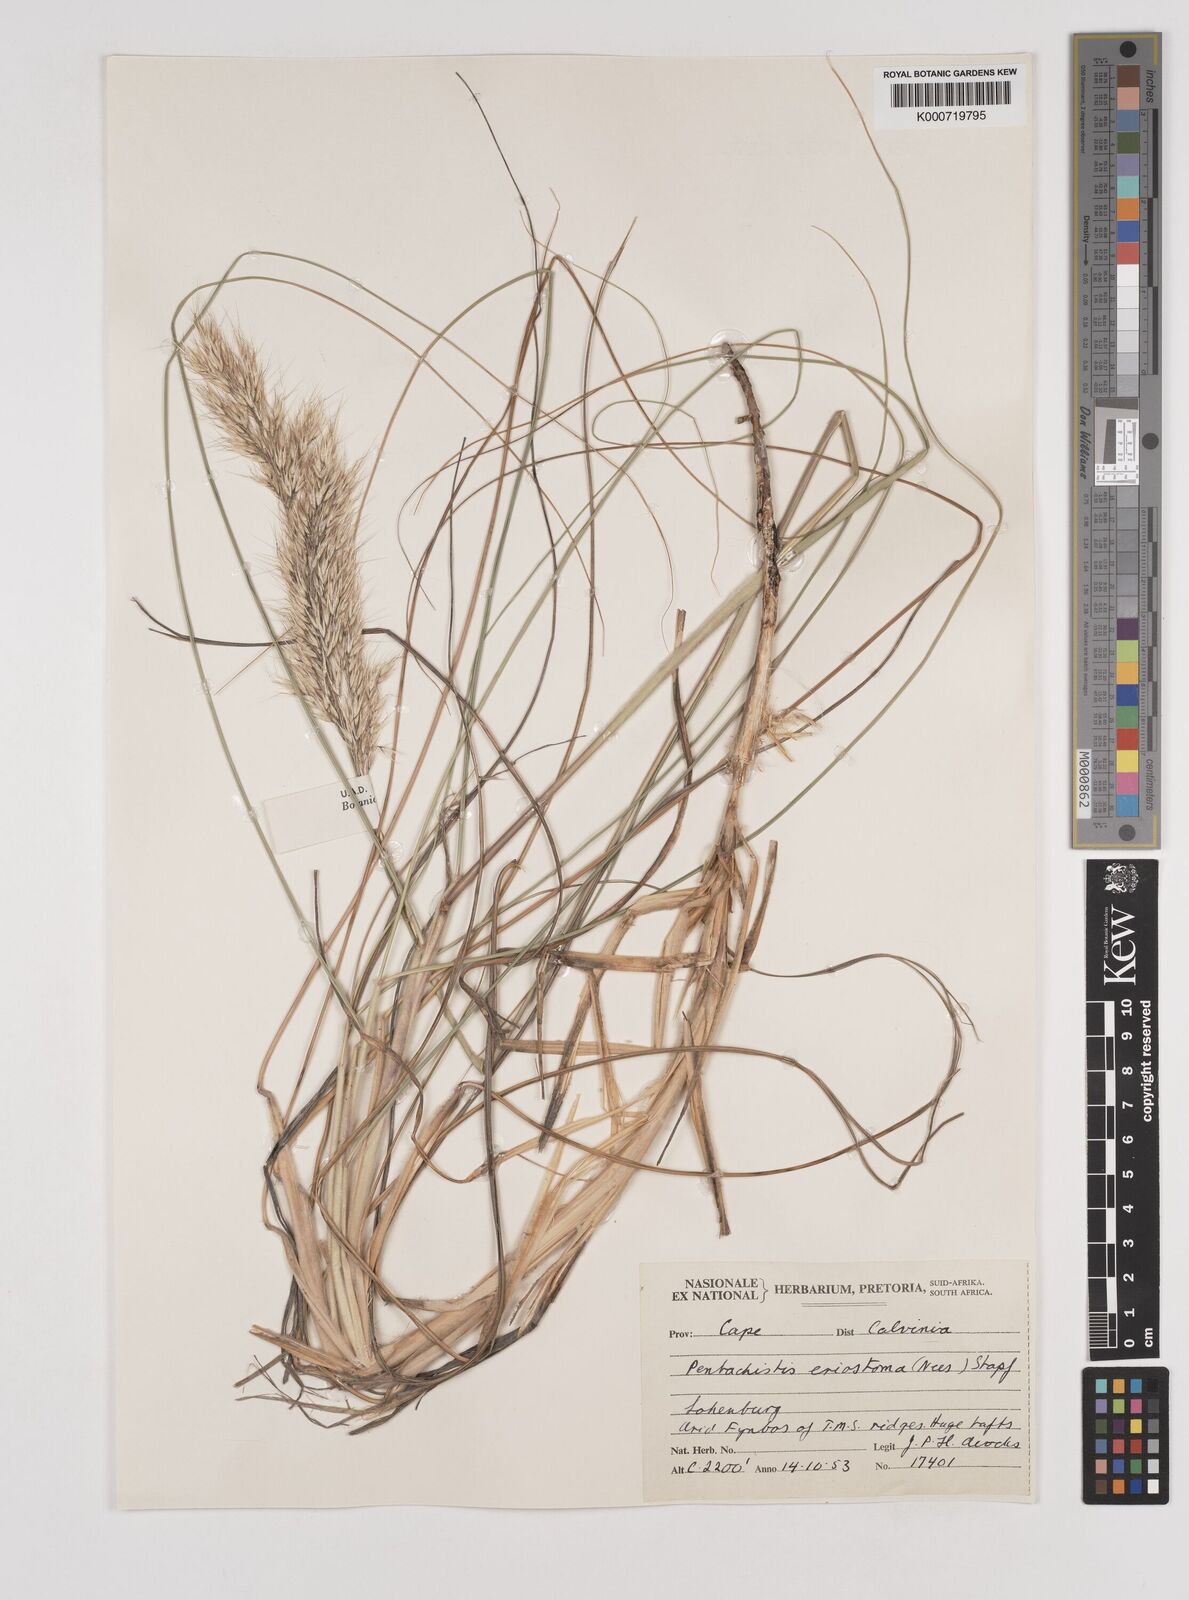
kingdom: Plantae
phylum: Tracheophyta
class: Liliopsida
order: Poales
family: Poaceae
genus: Pentameris
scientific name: Pentameris eriostoma
